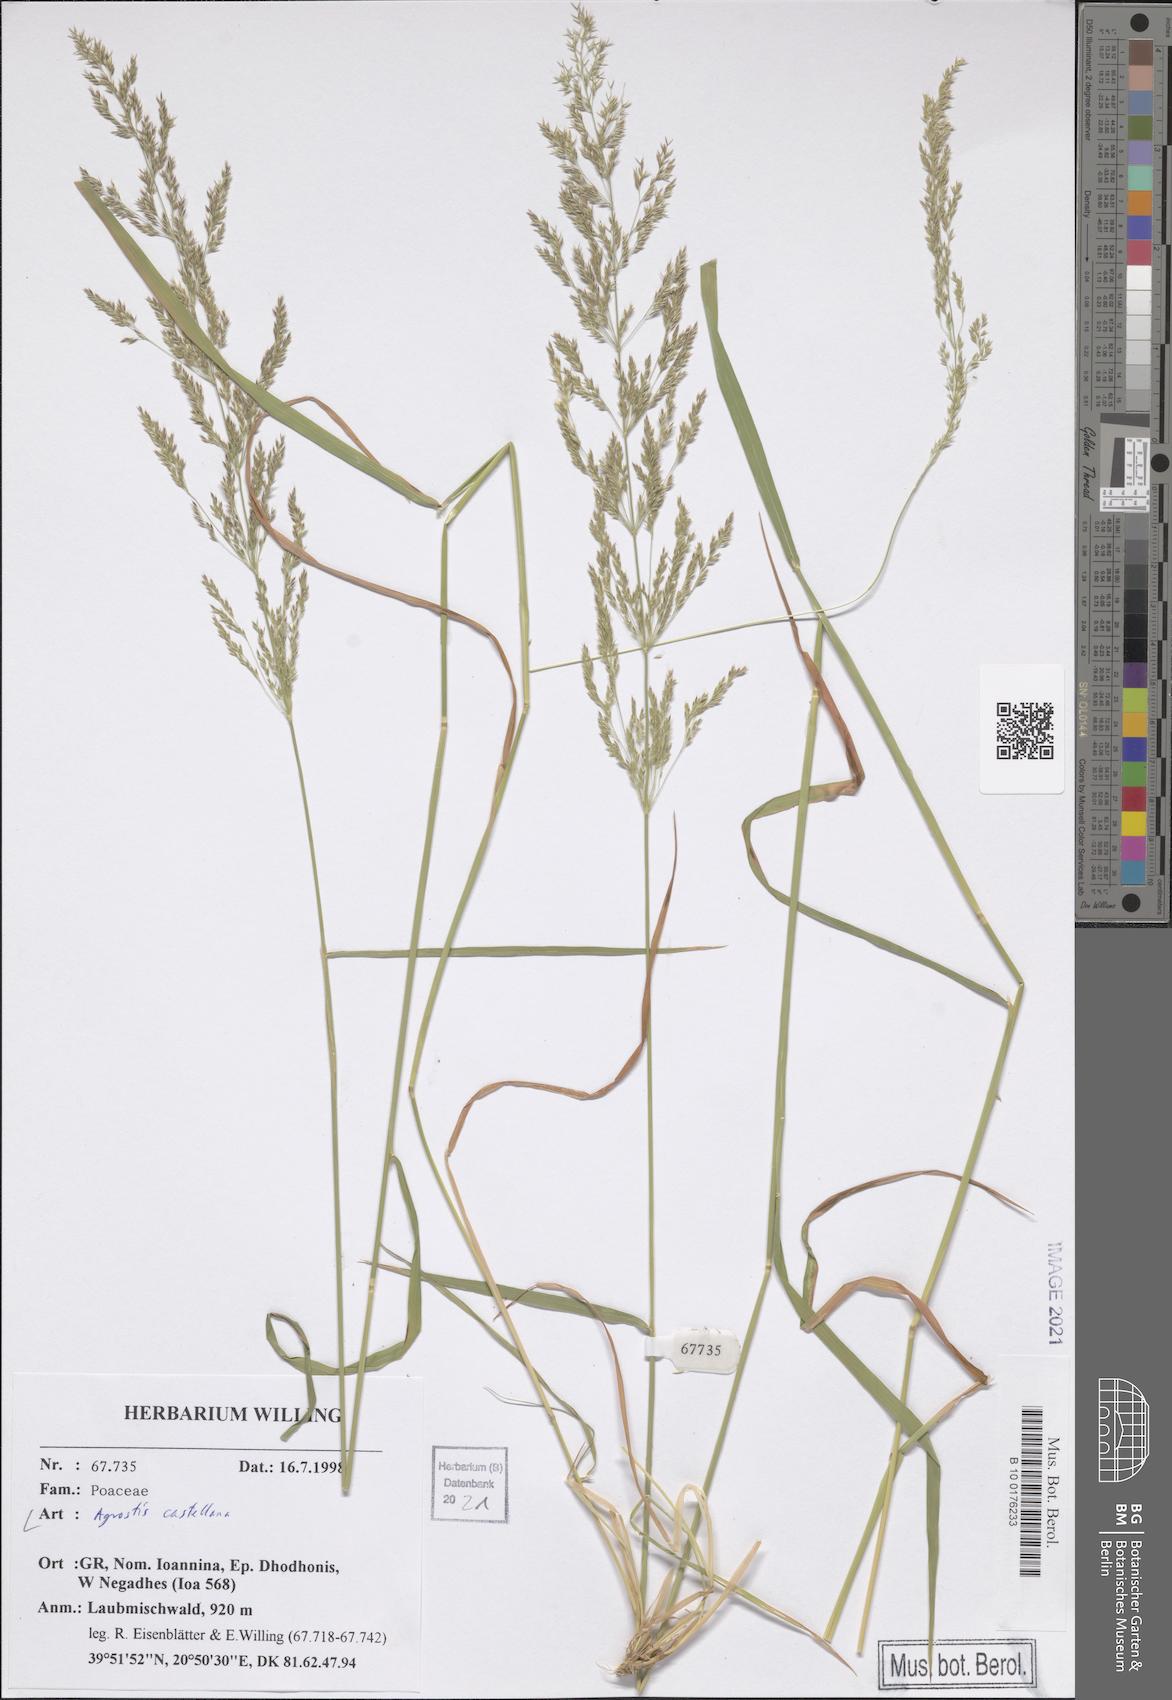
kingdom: Plantae
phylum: Tracheophyta
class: Liliopsida
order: Poales
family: Poaceae
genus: Agrostis
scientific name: Agrostis castellana
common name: Highland bent
